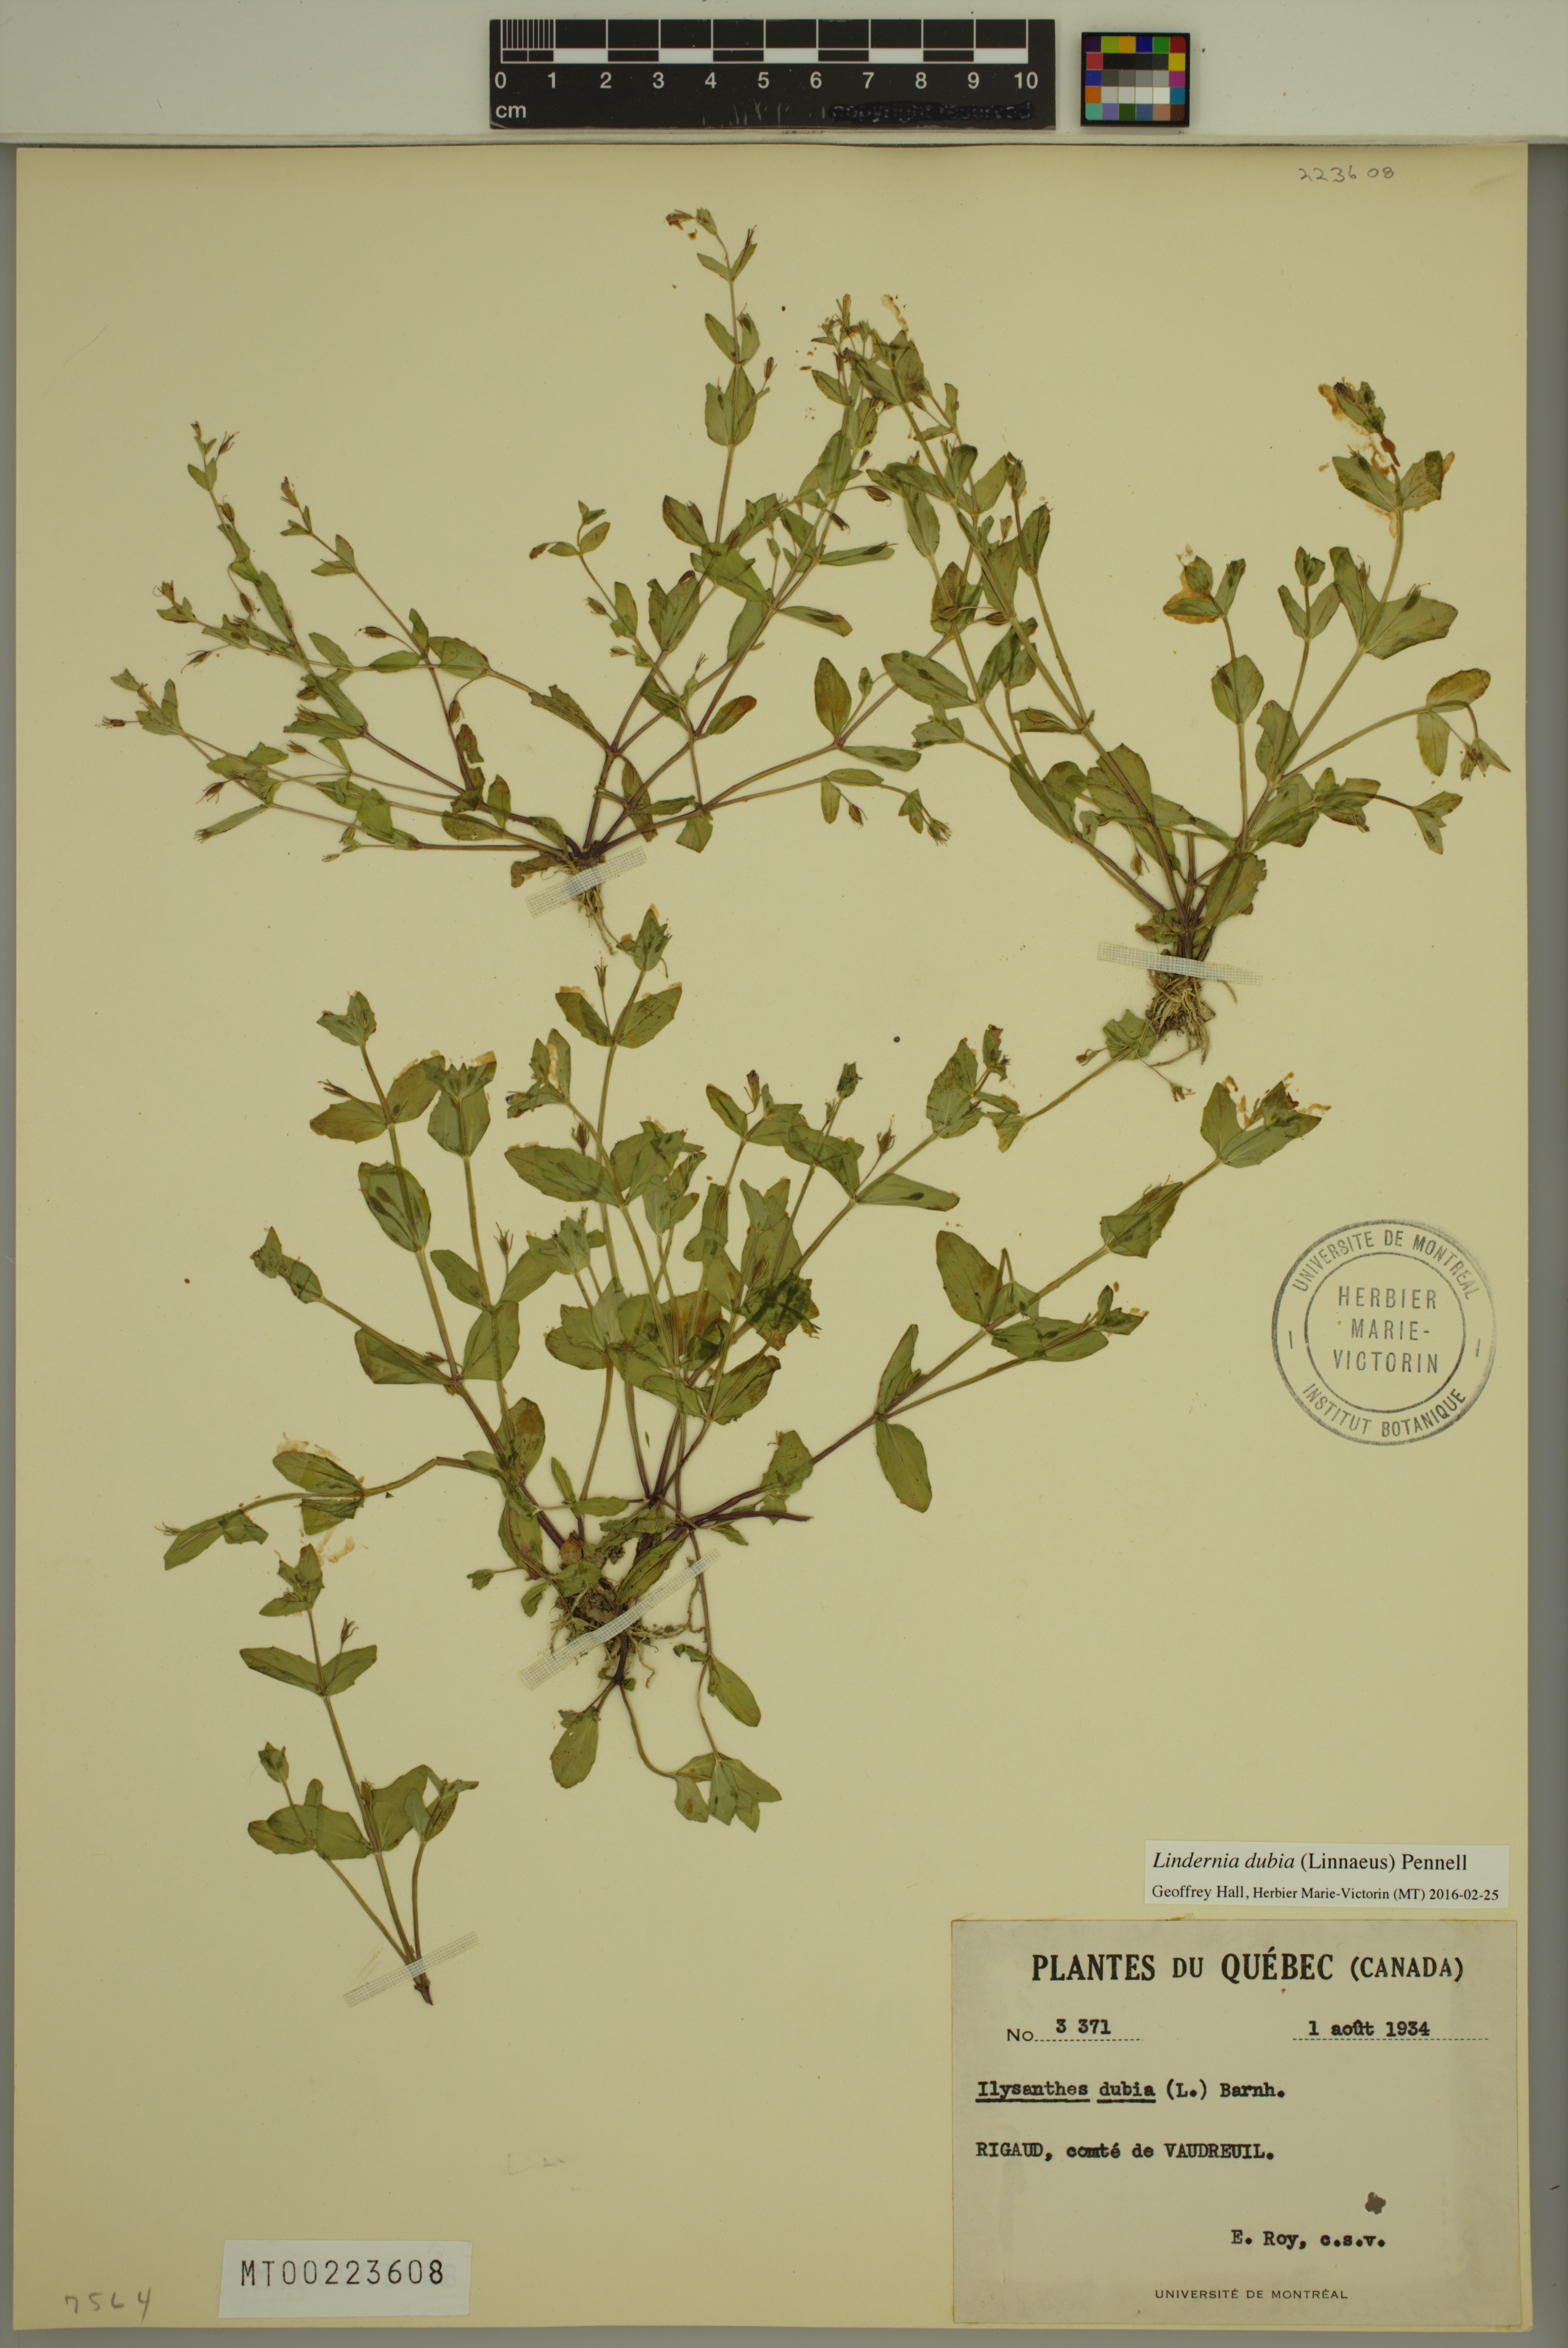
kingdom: Plantae
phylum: Tracheophyta
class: Magnoliopsida
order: Lamiales
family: Linderniaceae
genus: Lindernia
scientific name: Lindernia dubia
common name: Annual false pimpernel
